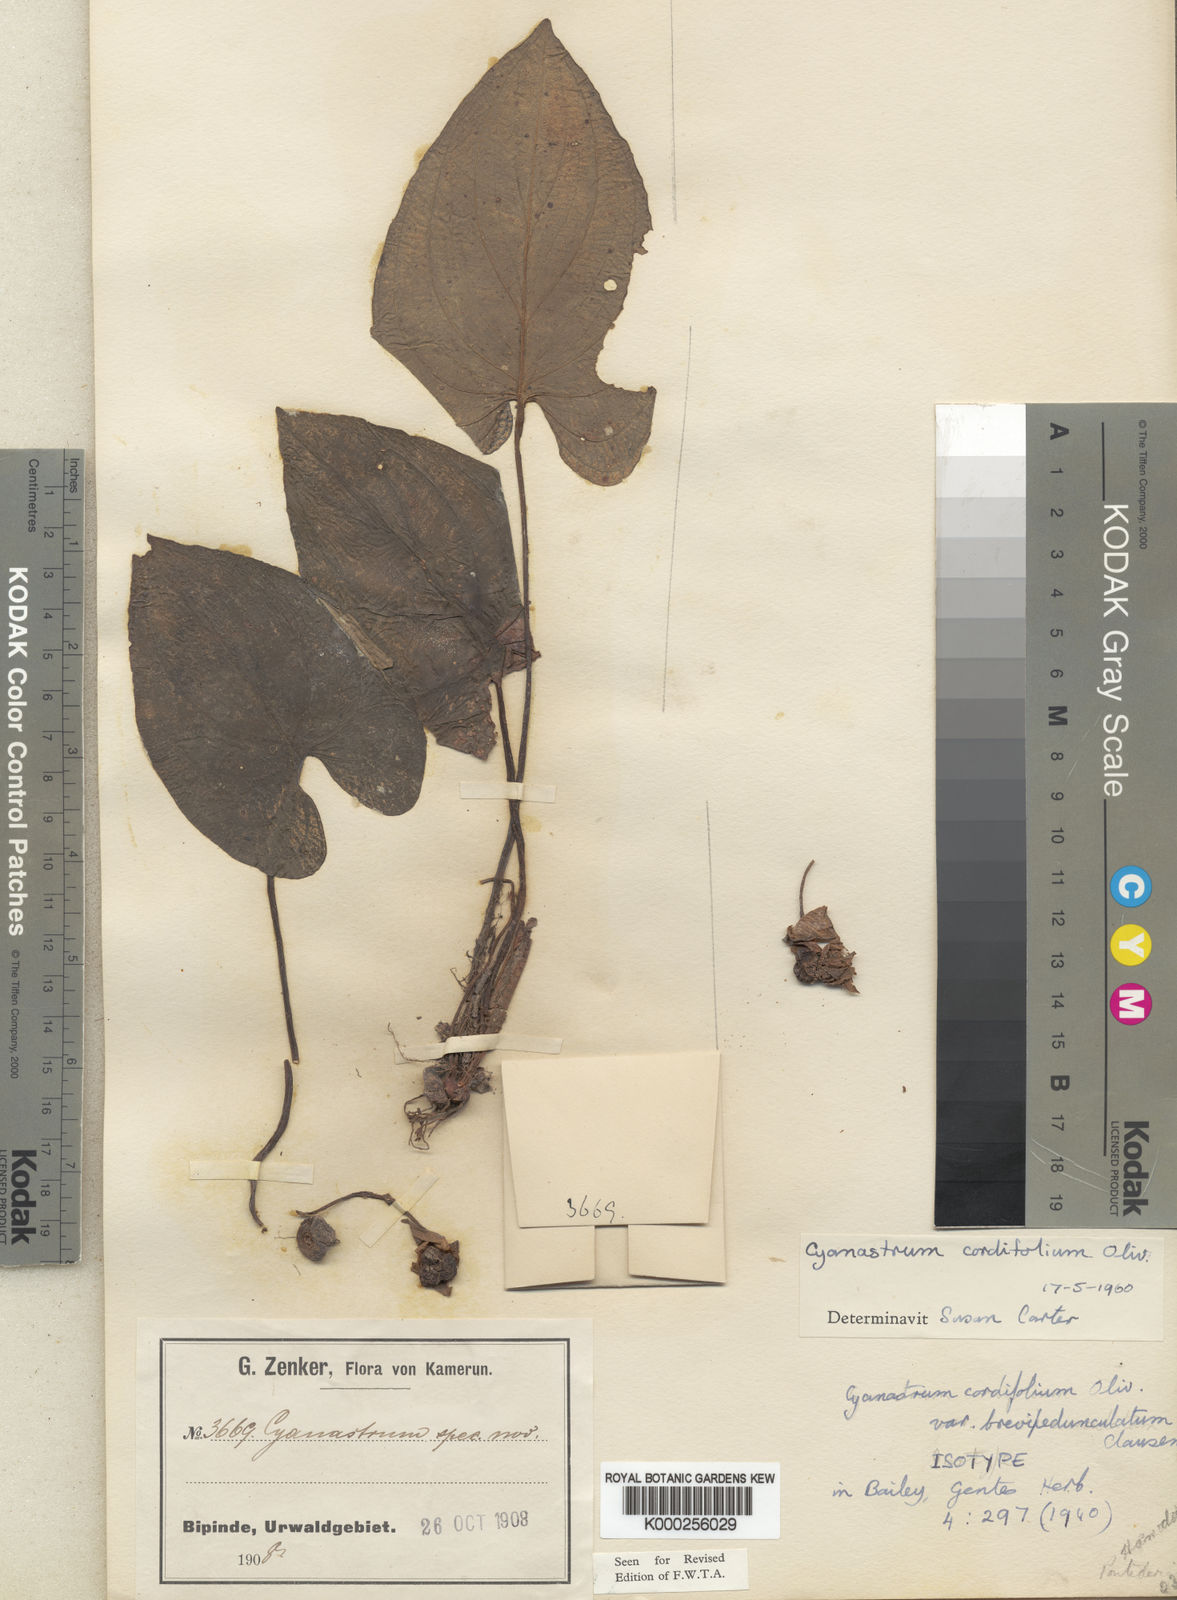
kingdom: Plantae
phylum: Tracheophyta
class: Liliopsida
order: Asparagales
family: Tecophilaeaceae
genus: Cyanastrum
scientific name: Cyanastrum cordifolium
